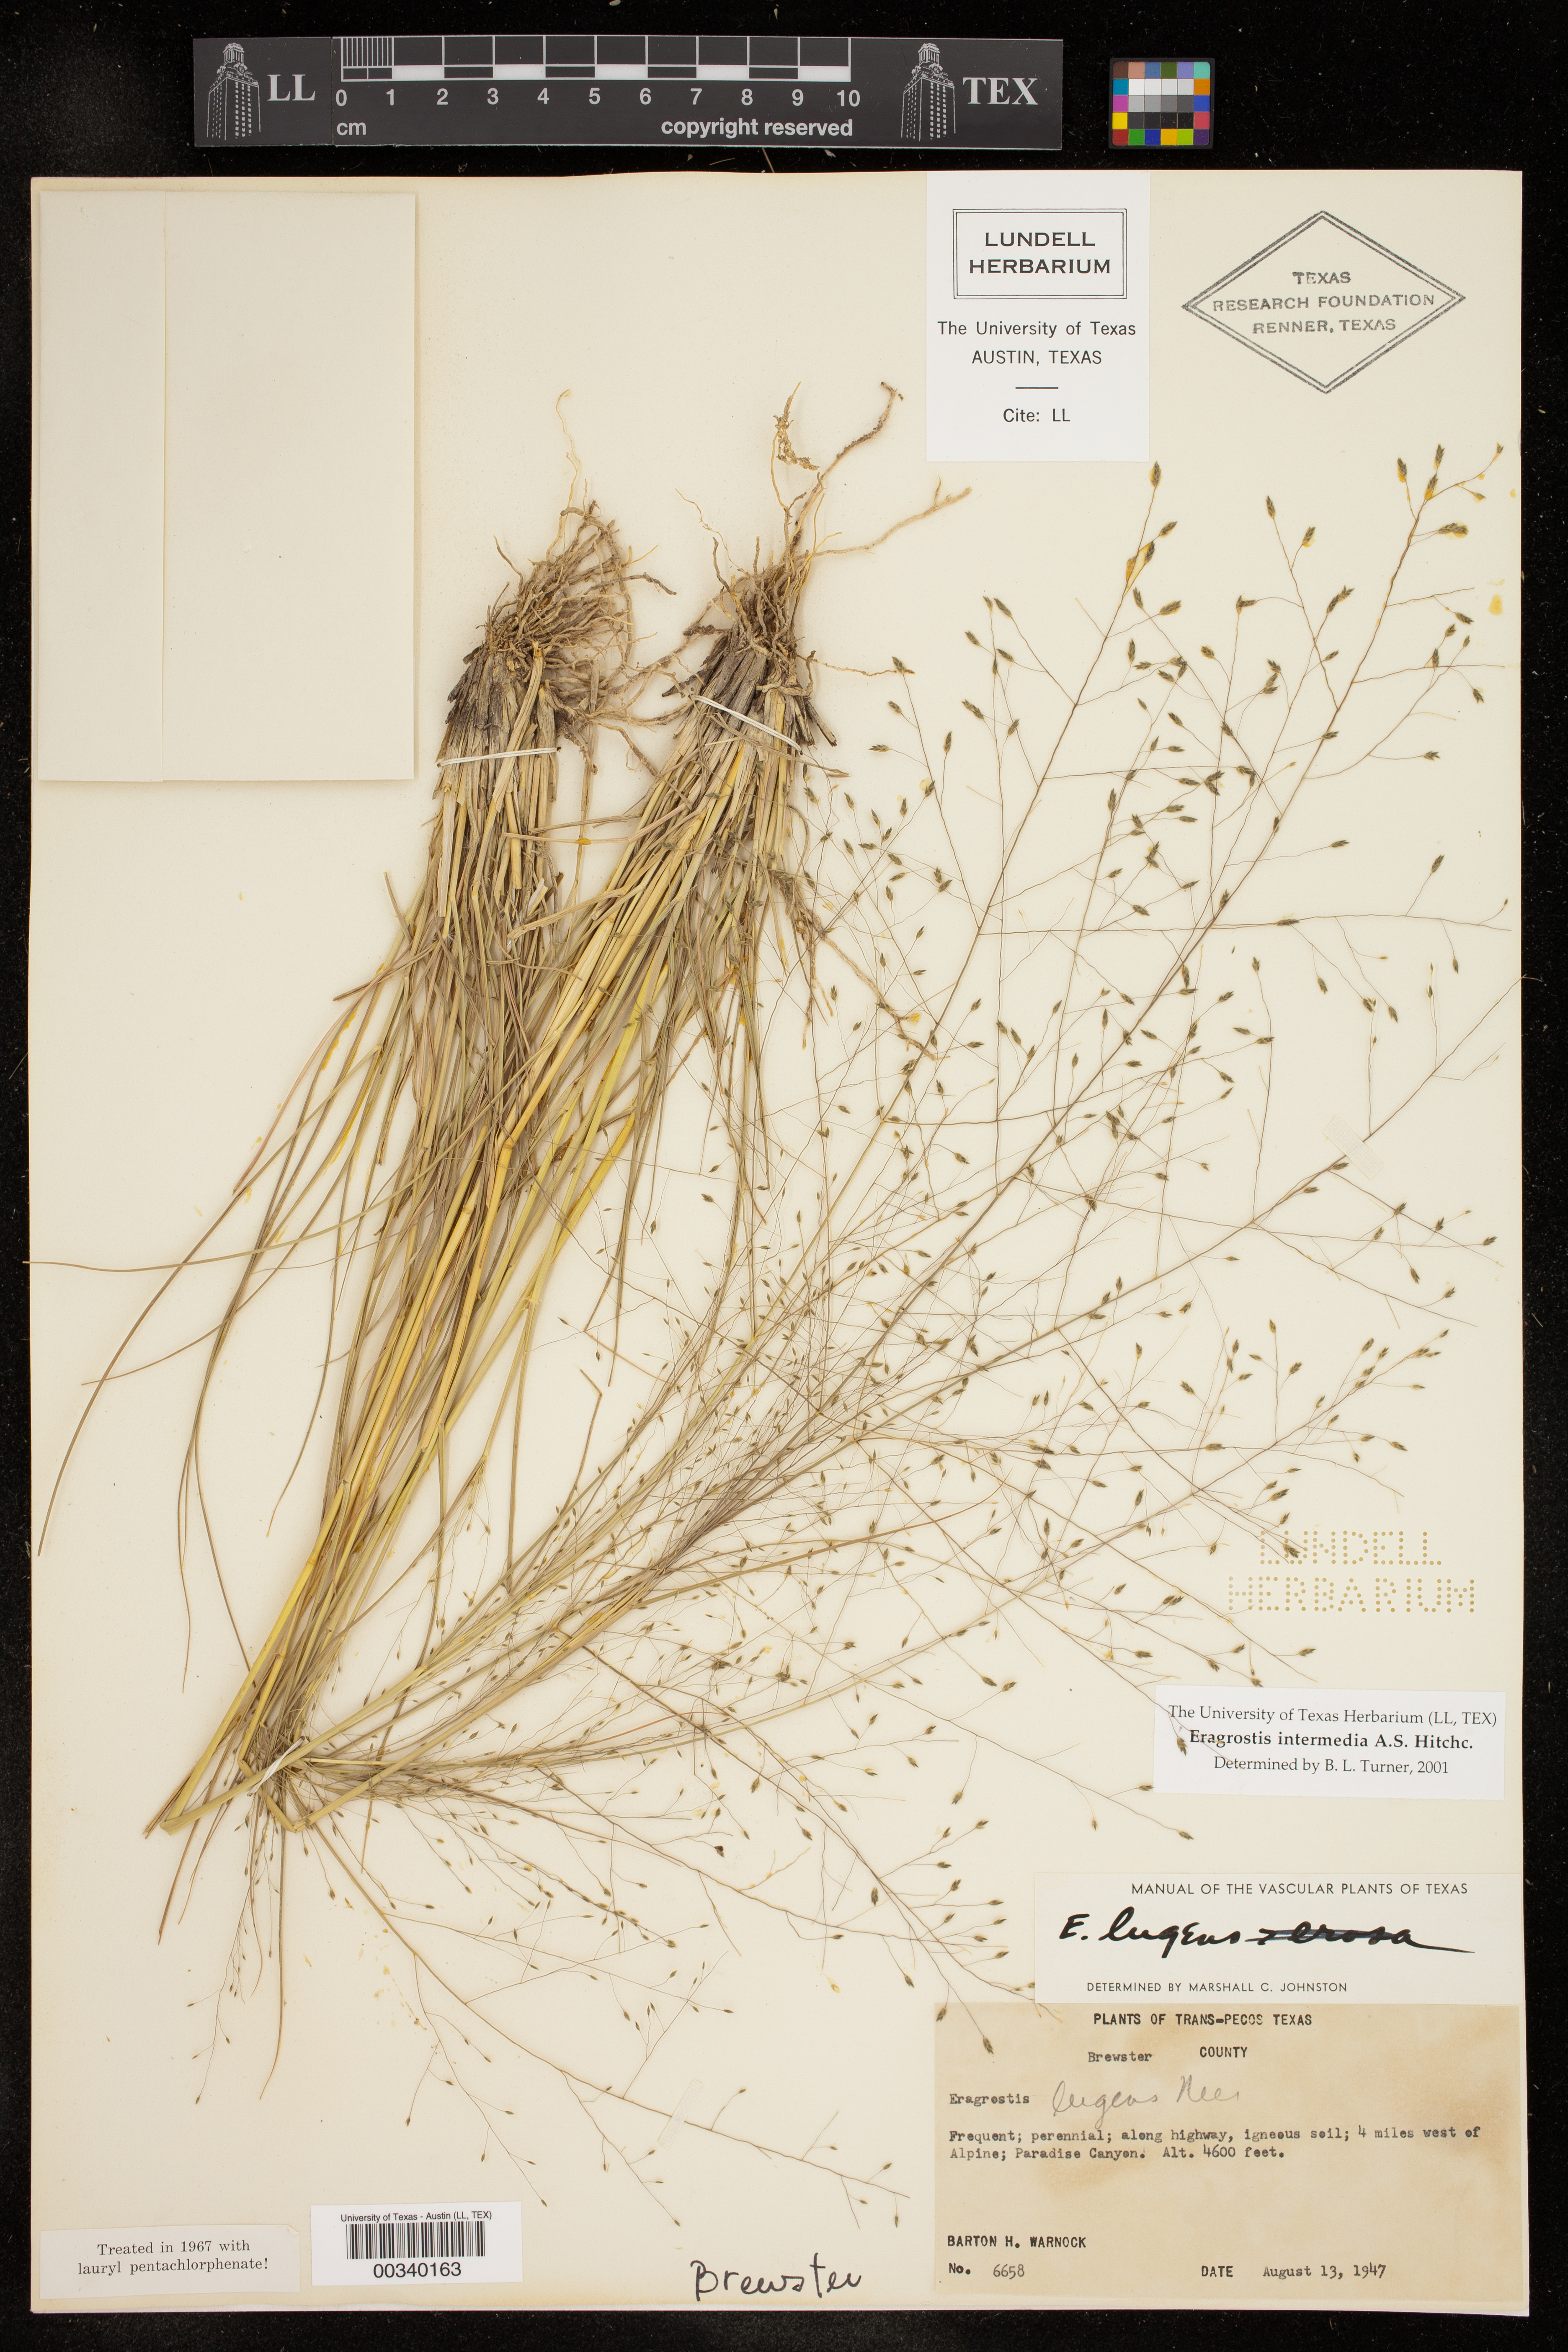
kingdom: Plantae
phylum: Tracheophyta
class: Liliopsida
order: Poales
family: Poaceae
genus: Eragrostis
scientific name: Eragrostis intermedia
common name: Plains love grass
